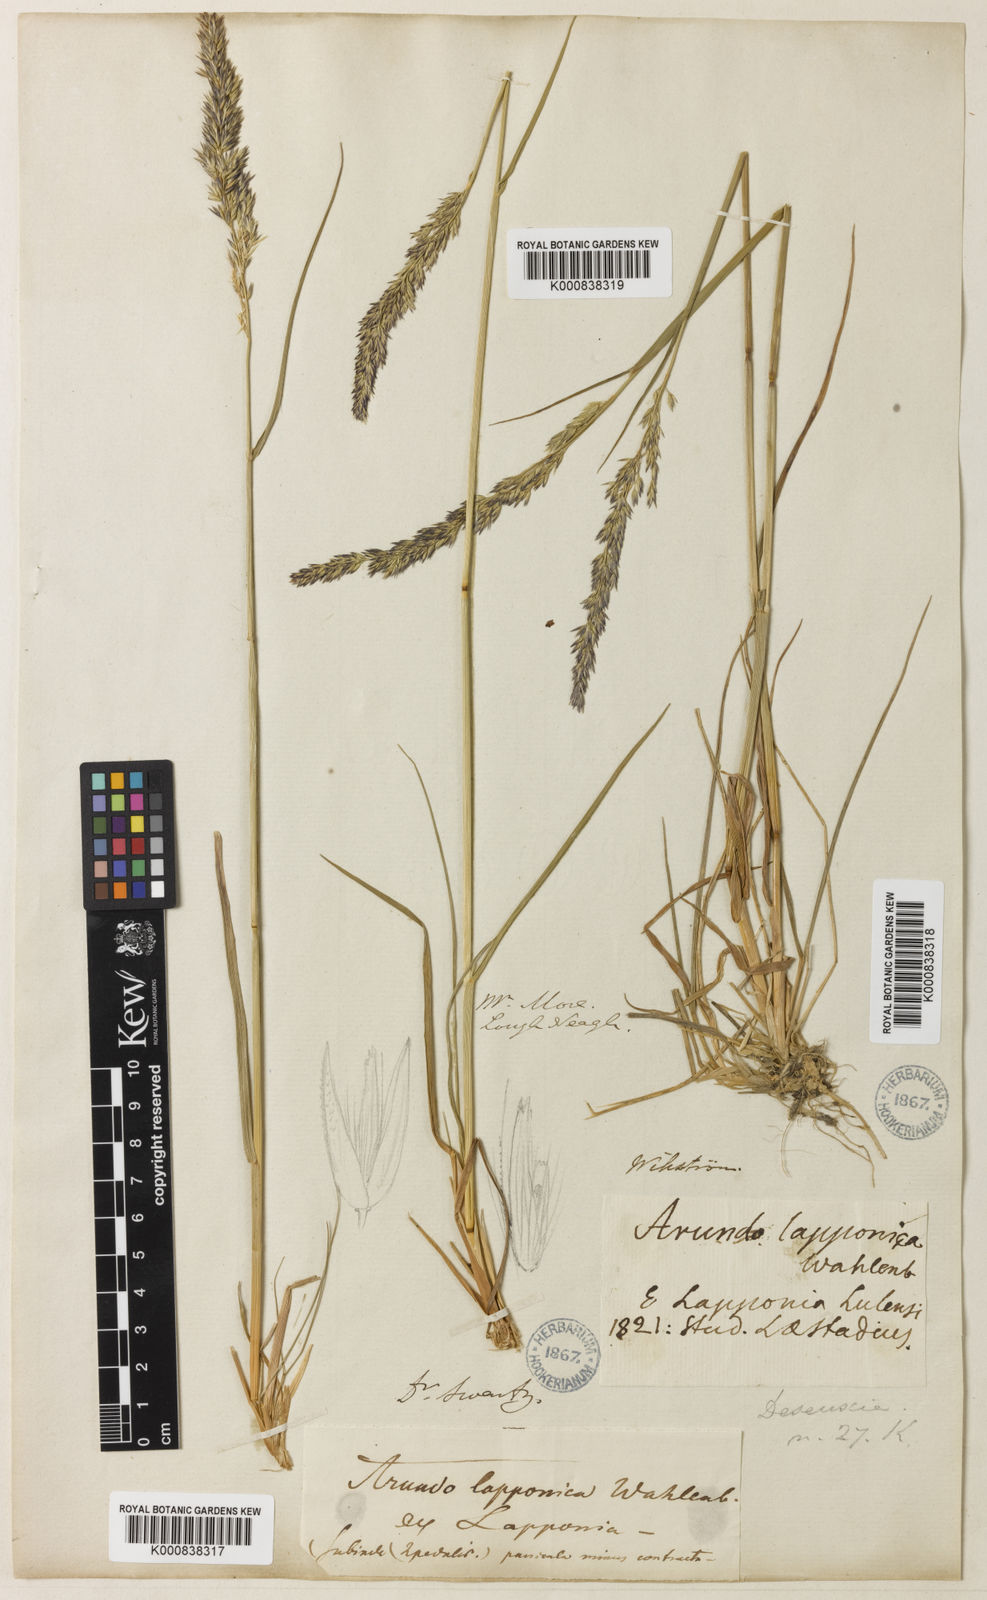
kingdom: Plantae
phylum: Tracheophyta
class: Liliopsida
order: Poales
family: Poaceae
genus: Calamagrostis
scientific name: Calamagrostis lapponica
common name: Lapland reedgrass
